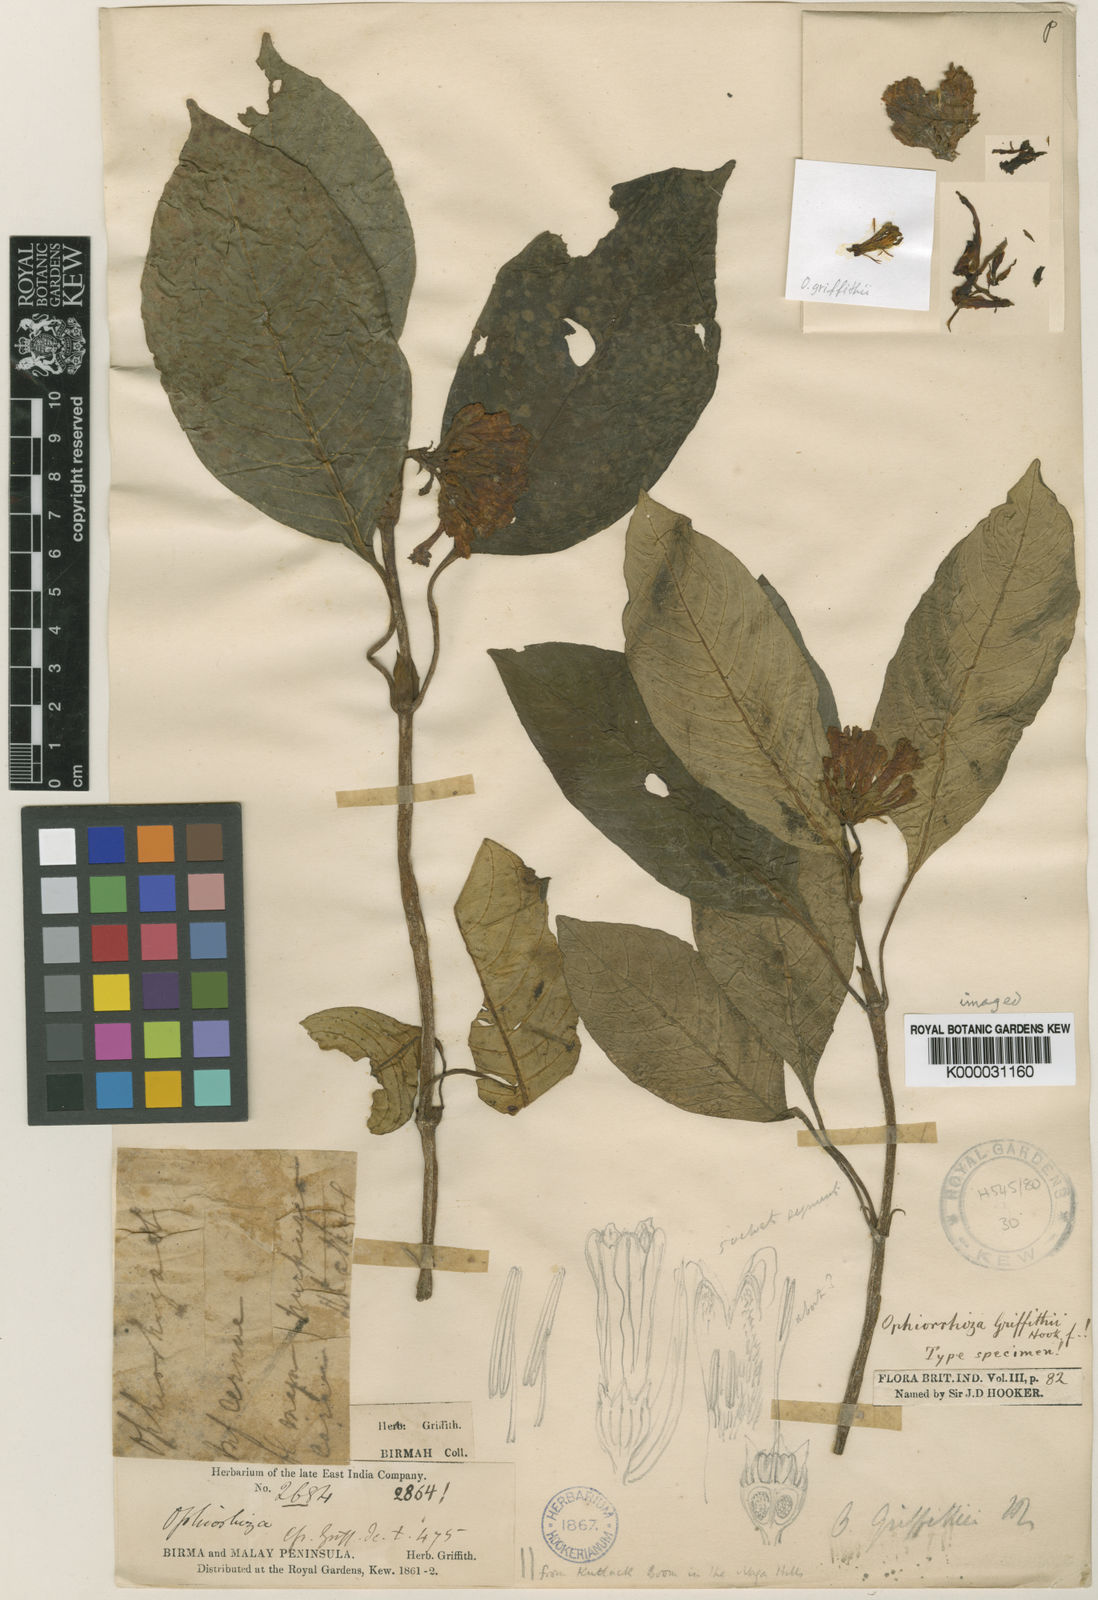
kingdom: Plantae
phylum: Tracheophyta
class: Magnoliopsida
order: Gentianales
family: Rubiaceae
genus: Ophiorrhiza
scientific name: Ophiorrhiza
